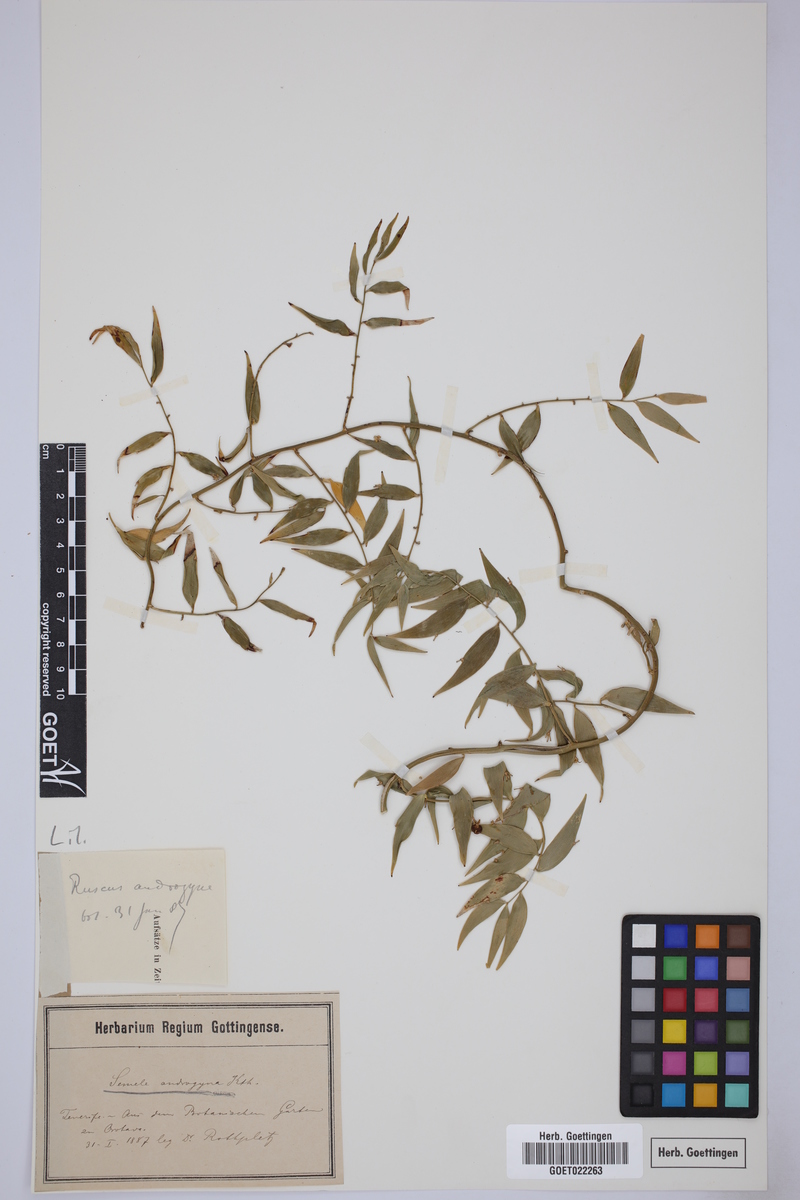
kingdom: Plantae
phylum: Tracheophyta
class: Liliopsida
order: Asparagales
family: Asparagaceae
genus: Semele
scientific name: Semele androgyna
